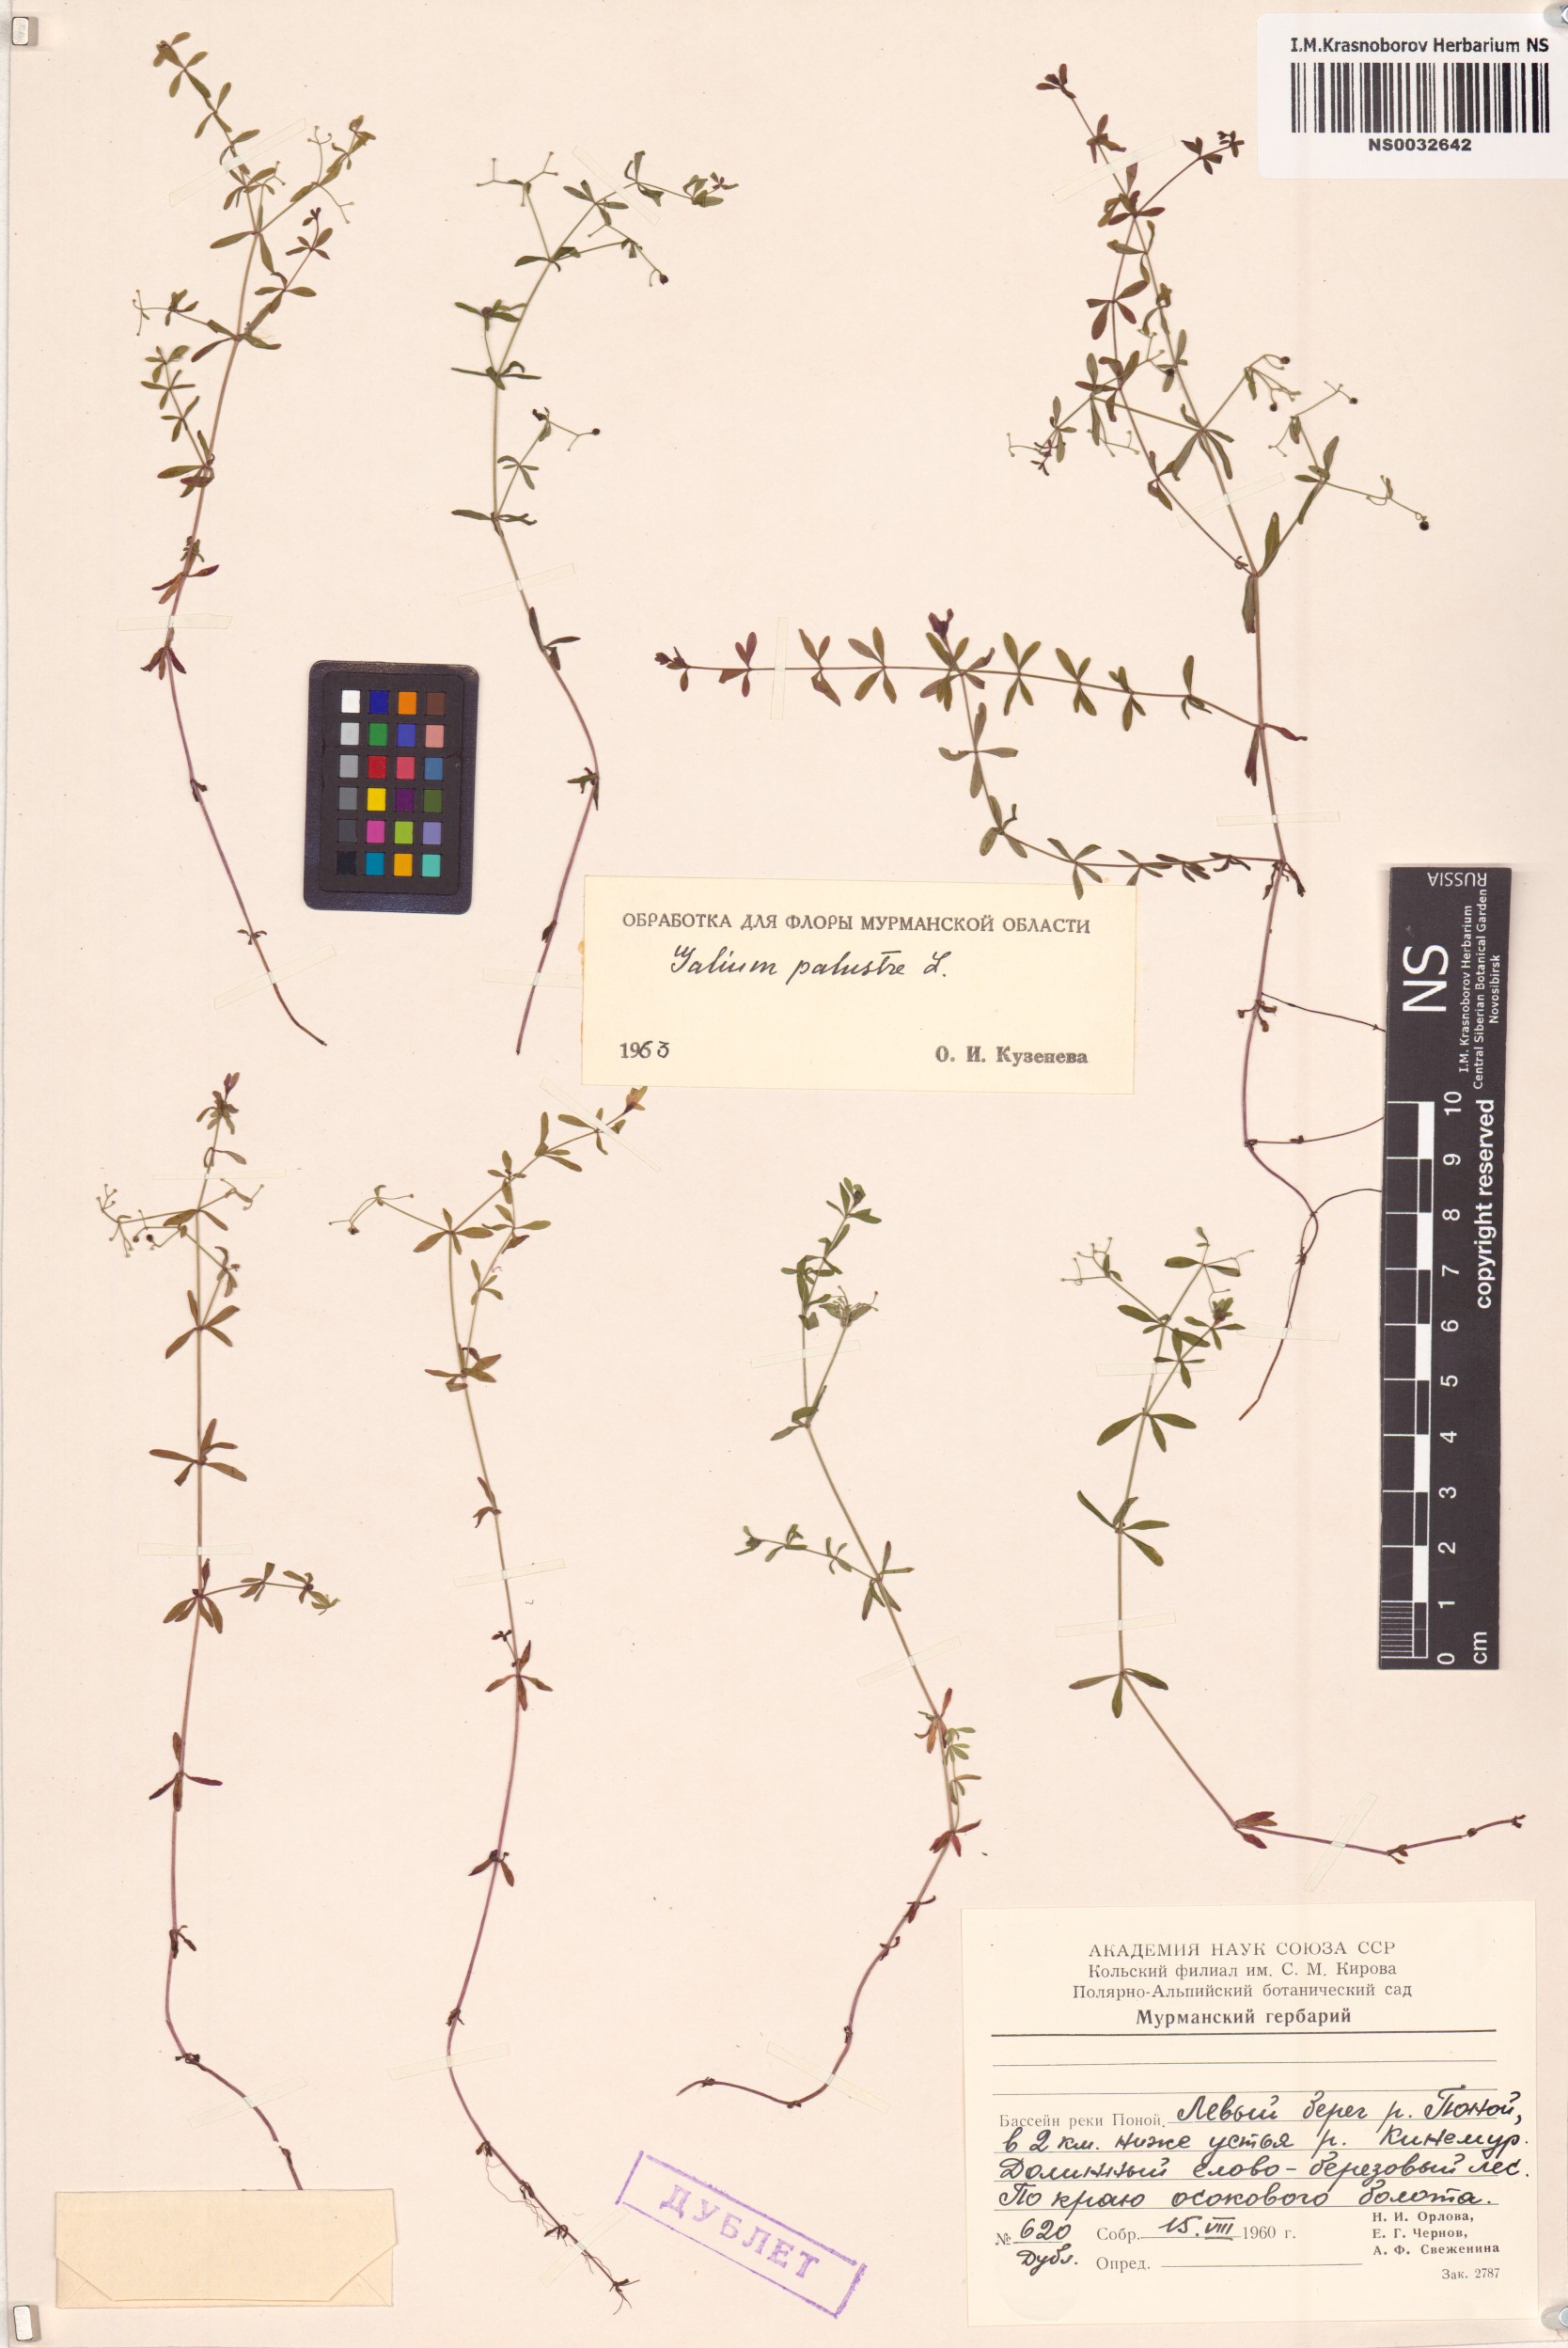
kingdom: Plantae
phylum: Tracheophyta
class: Magnoliopsida
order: Gentianales
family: Rubiaceae
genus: Galium
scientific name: Galium palustre
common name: Common marsh-bedstraw
